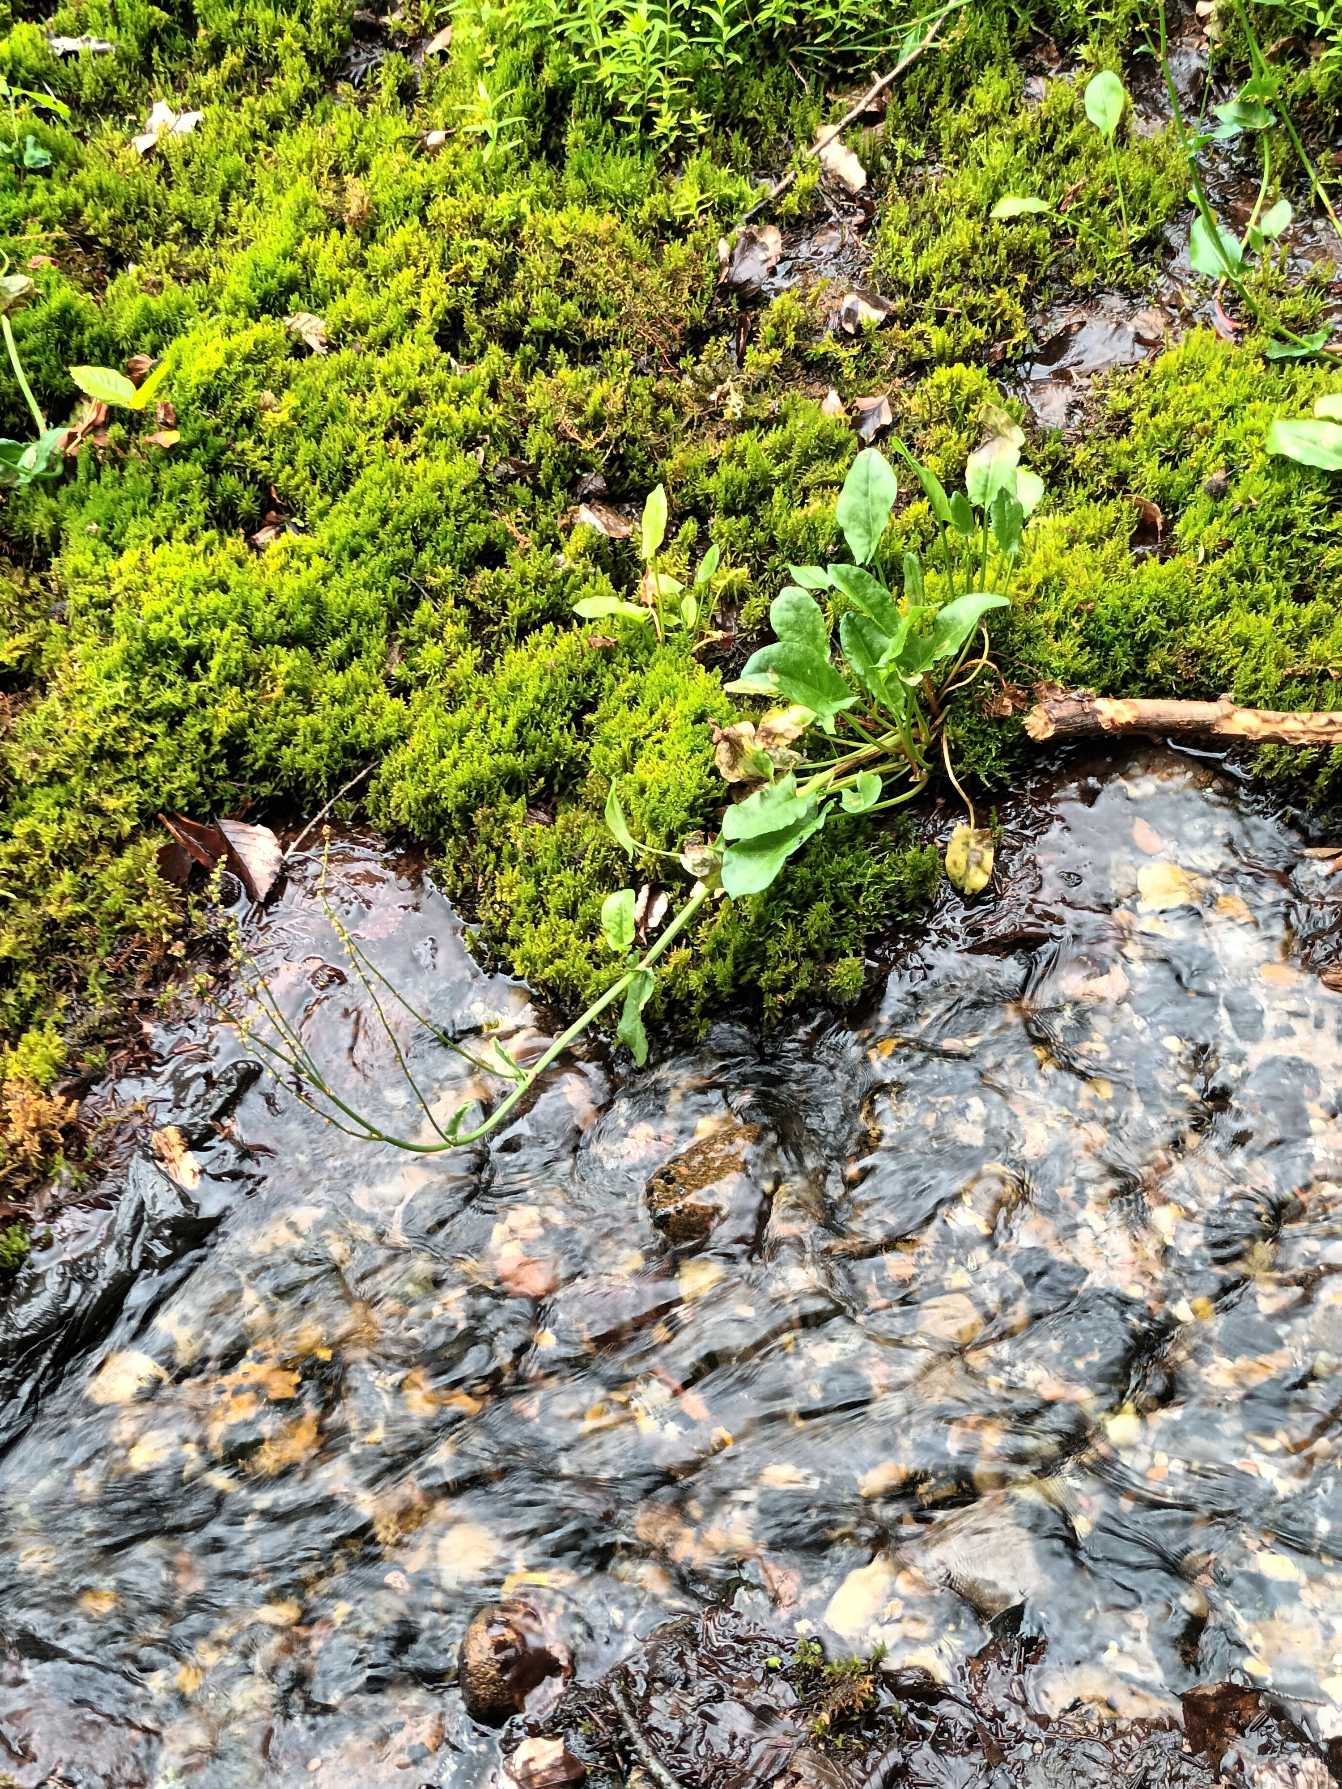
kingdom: Plantae
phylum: Tracheophyta
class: Magnoliopsida
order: Caryophyllales
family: Polygonaceae
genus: Rumex
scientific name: Rumex acetosa
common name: Kilde-syre
